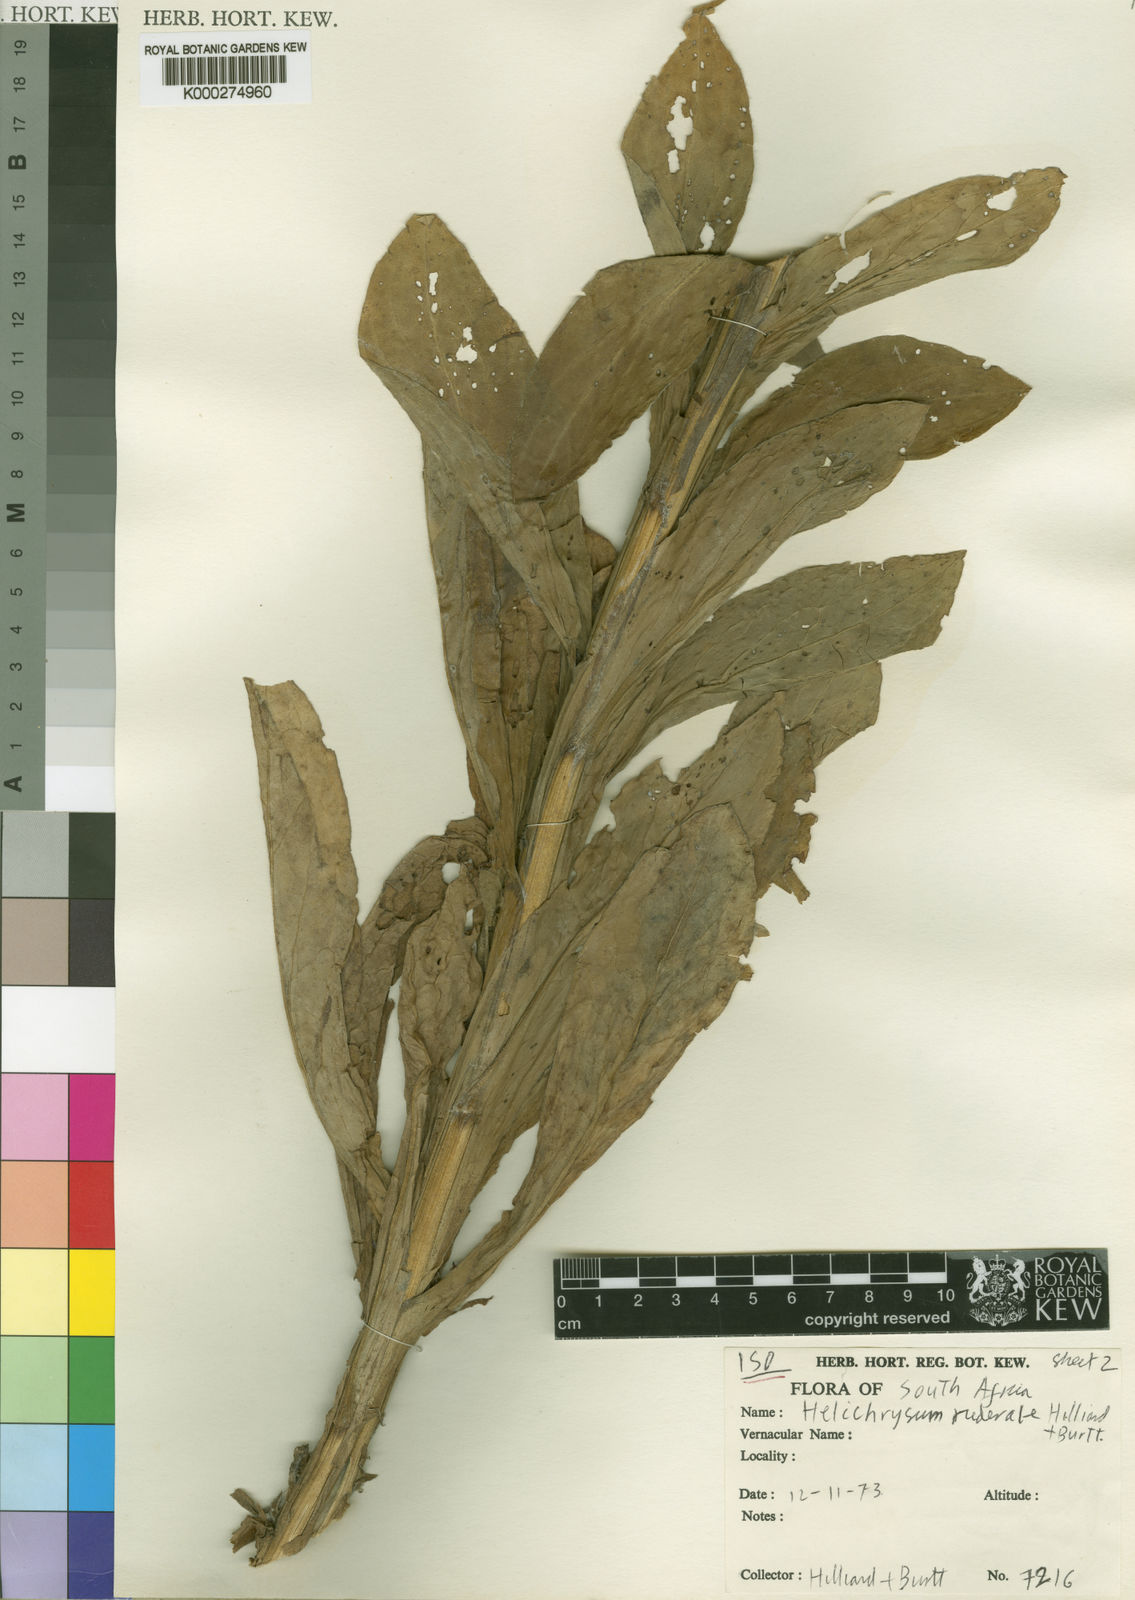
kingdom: Plantae
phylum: Tracheophyta
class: Magnoliopsida
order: Asterales
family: Asteraceae
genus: Helichrysum
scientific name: Helichrysum ruderale
